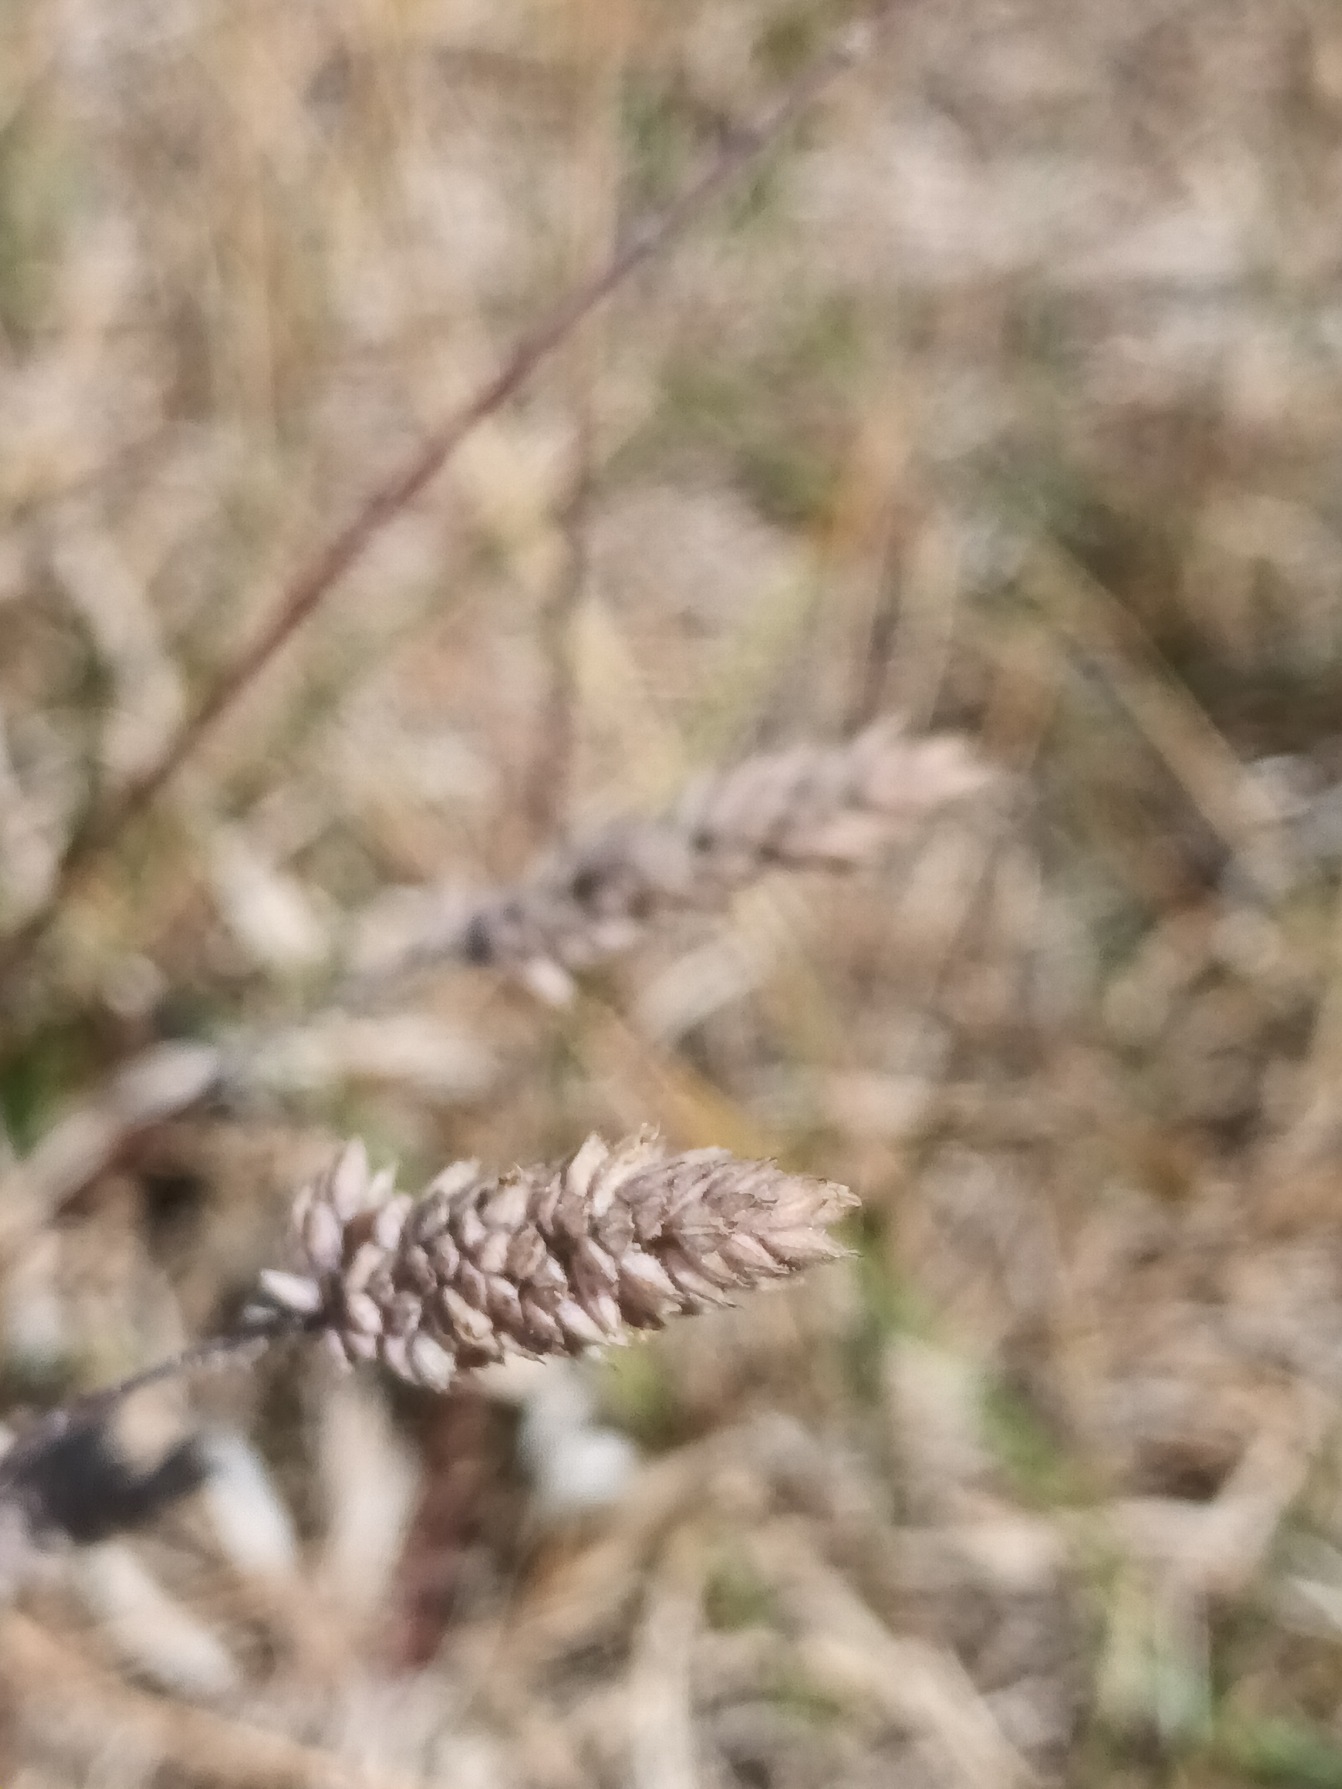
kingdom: Plantae
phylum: Tracheophyta
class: Liliopsida
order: Poales
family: Poaceae
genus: Holcus
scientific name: Holcus lanatus
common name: Fløjlsgræs
